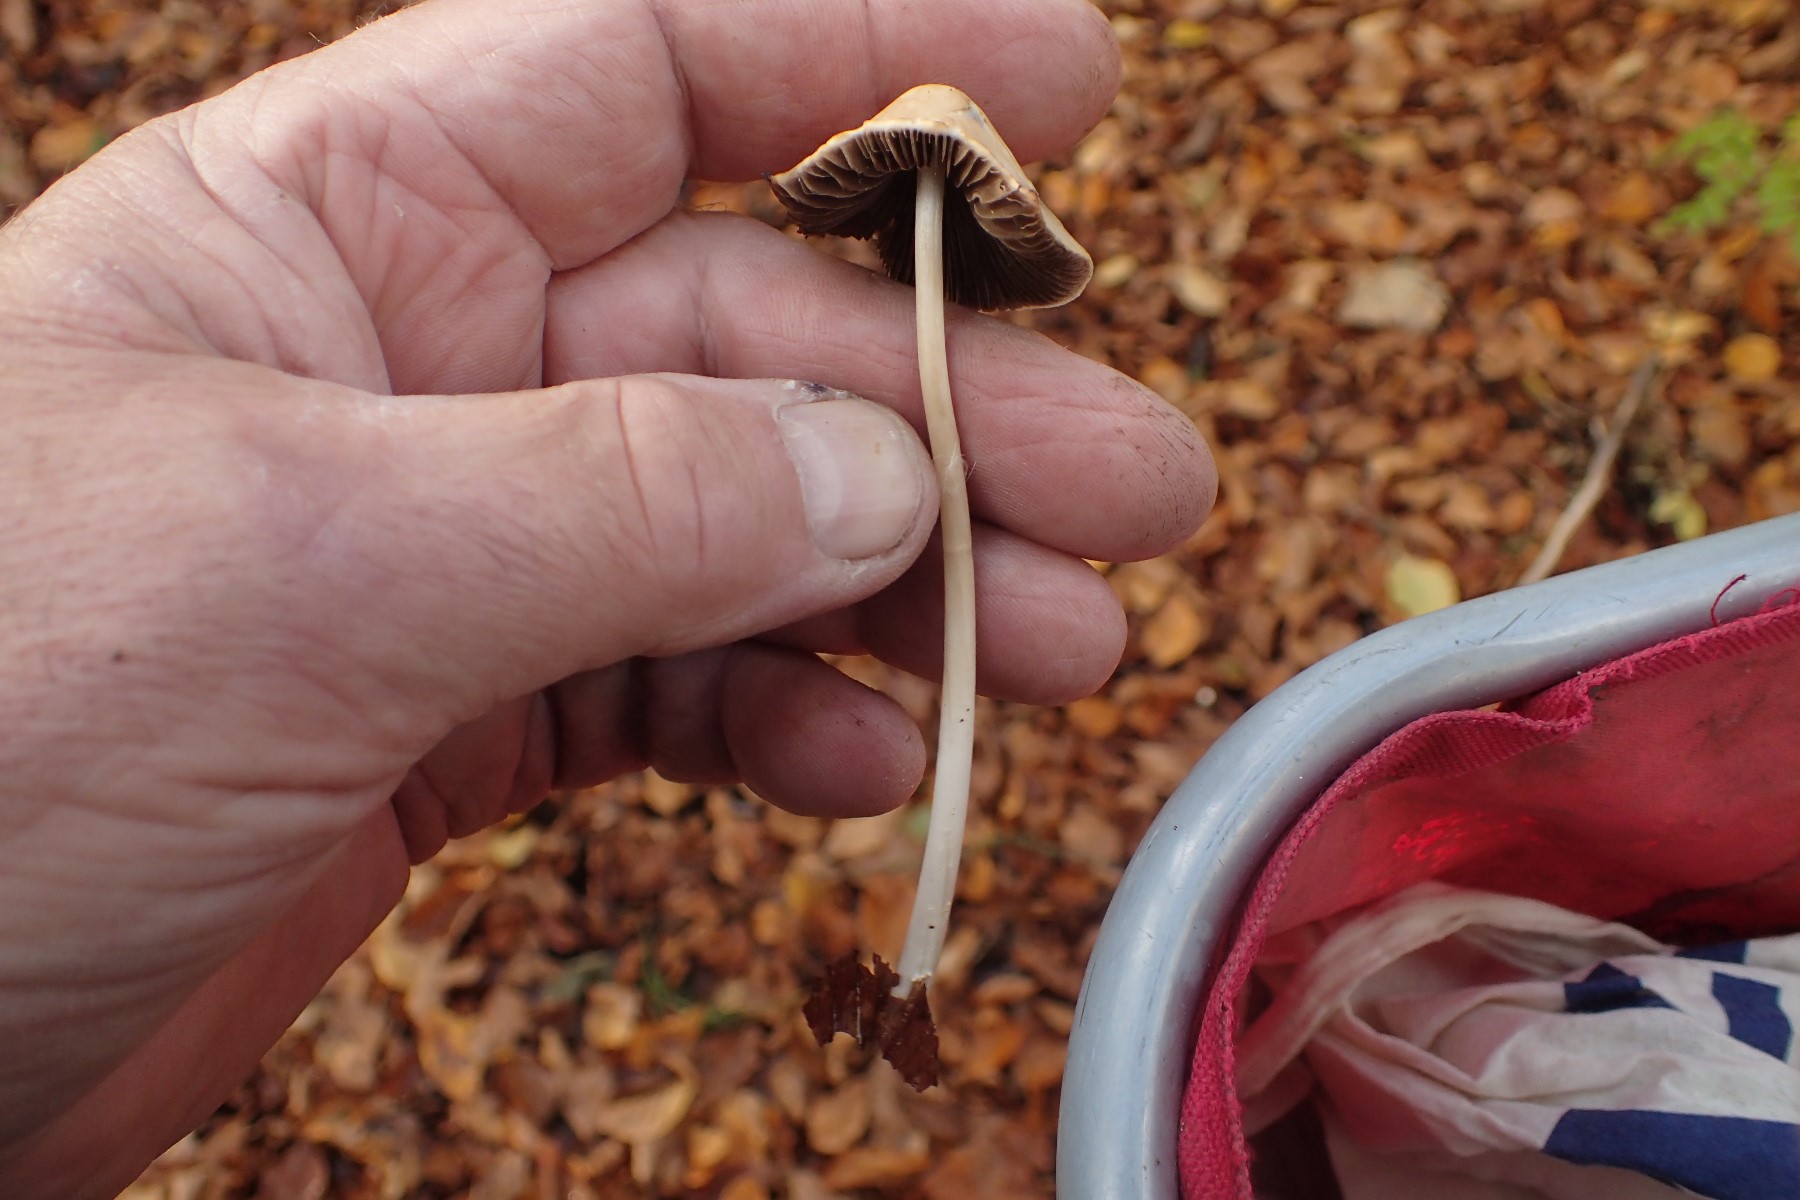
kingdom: Fungi
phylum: Basidiomycota
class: Agaricomycetes
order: Agaricales
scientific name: Agaricales
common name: champignonordenen
